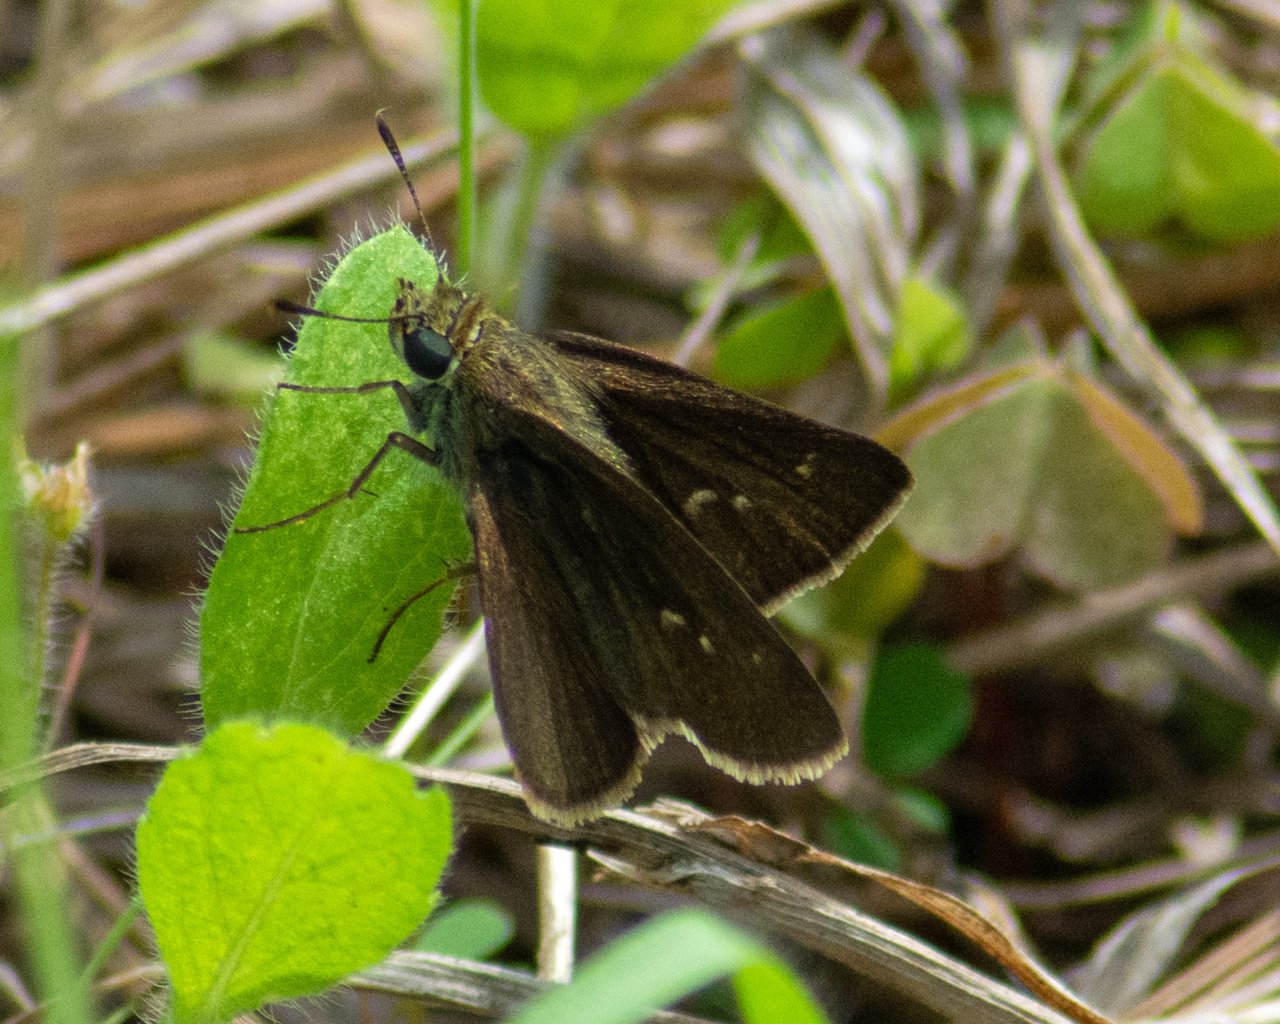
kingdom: Animalia
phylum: Arthropoda
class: Insecta
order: Lepidoptera
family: Hesperiidae
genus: Euphyes
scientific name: Euphyes vestris
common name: Dun Skipper
